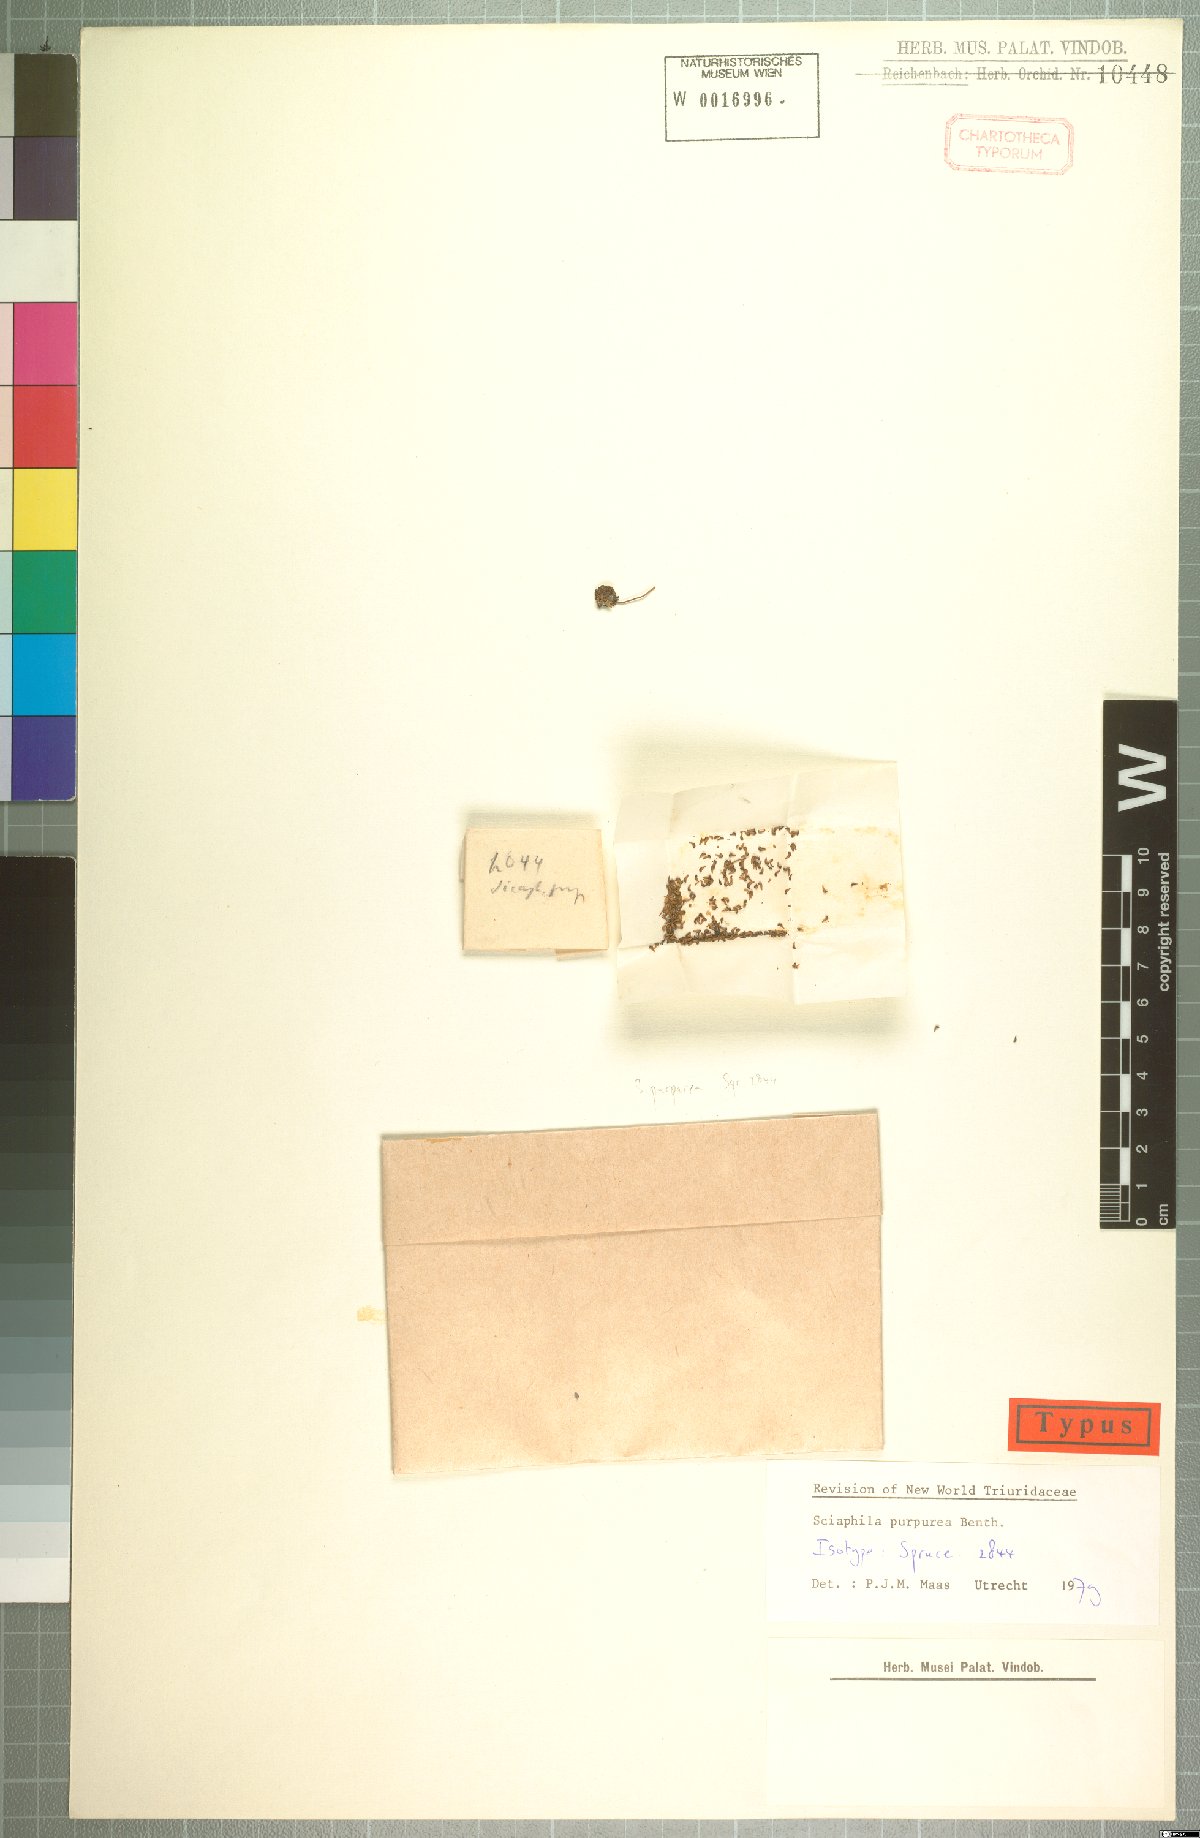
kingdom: Plantae
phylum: Tracheophyta
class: Liliopsida
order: Pandanales
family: Triuridaceae
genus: Sciaphila
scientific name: Sciaphila purpurea
